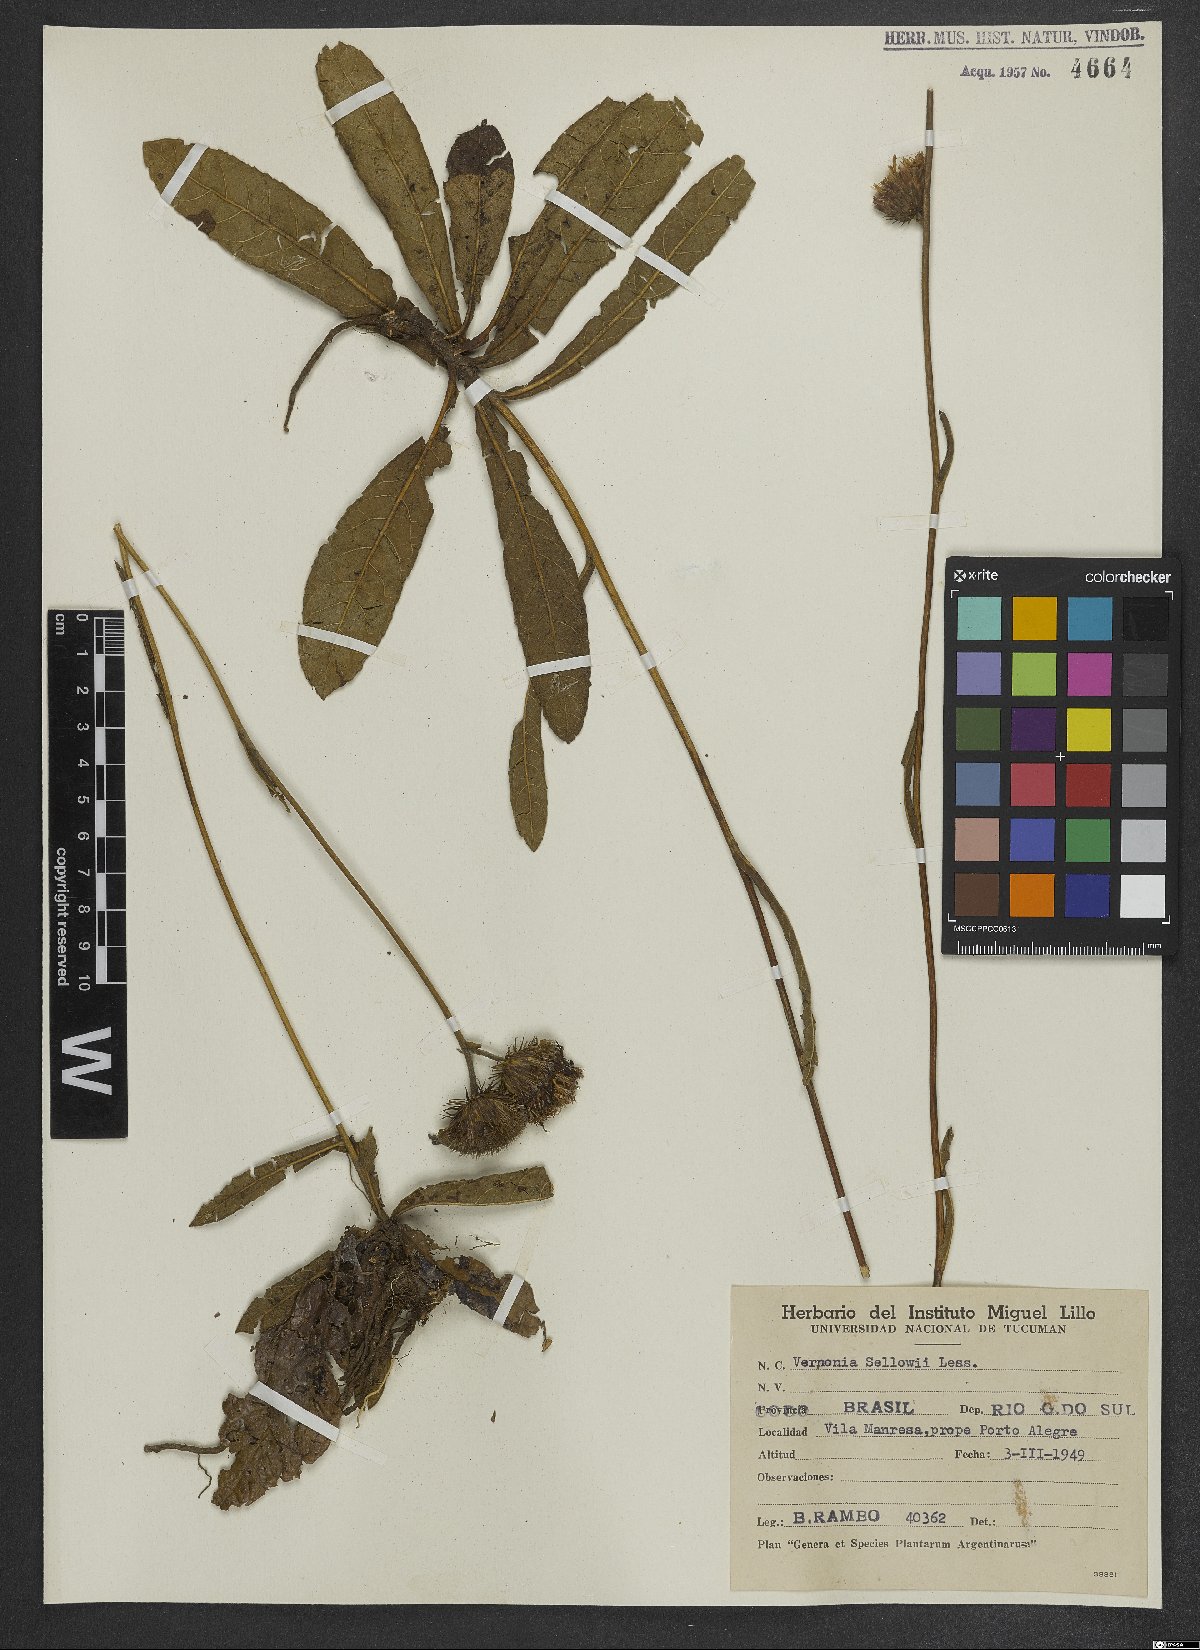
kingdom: Plantae
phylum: Tracheophyta
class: Magnoliopsida
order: Asterales
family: Asteraceae
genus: Lessingianthus
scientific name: Lessingianthus sellowii
